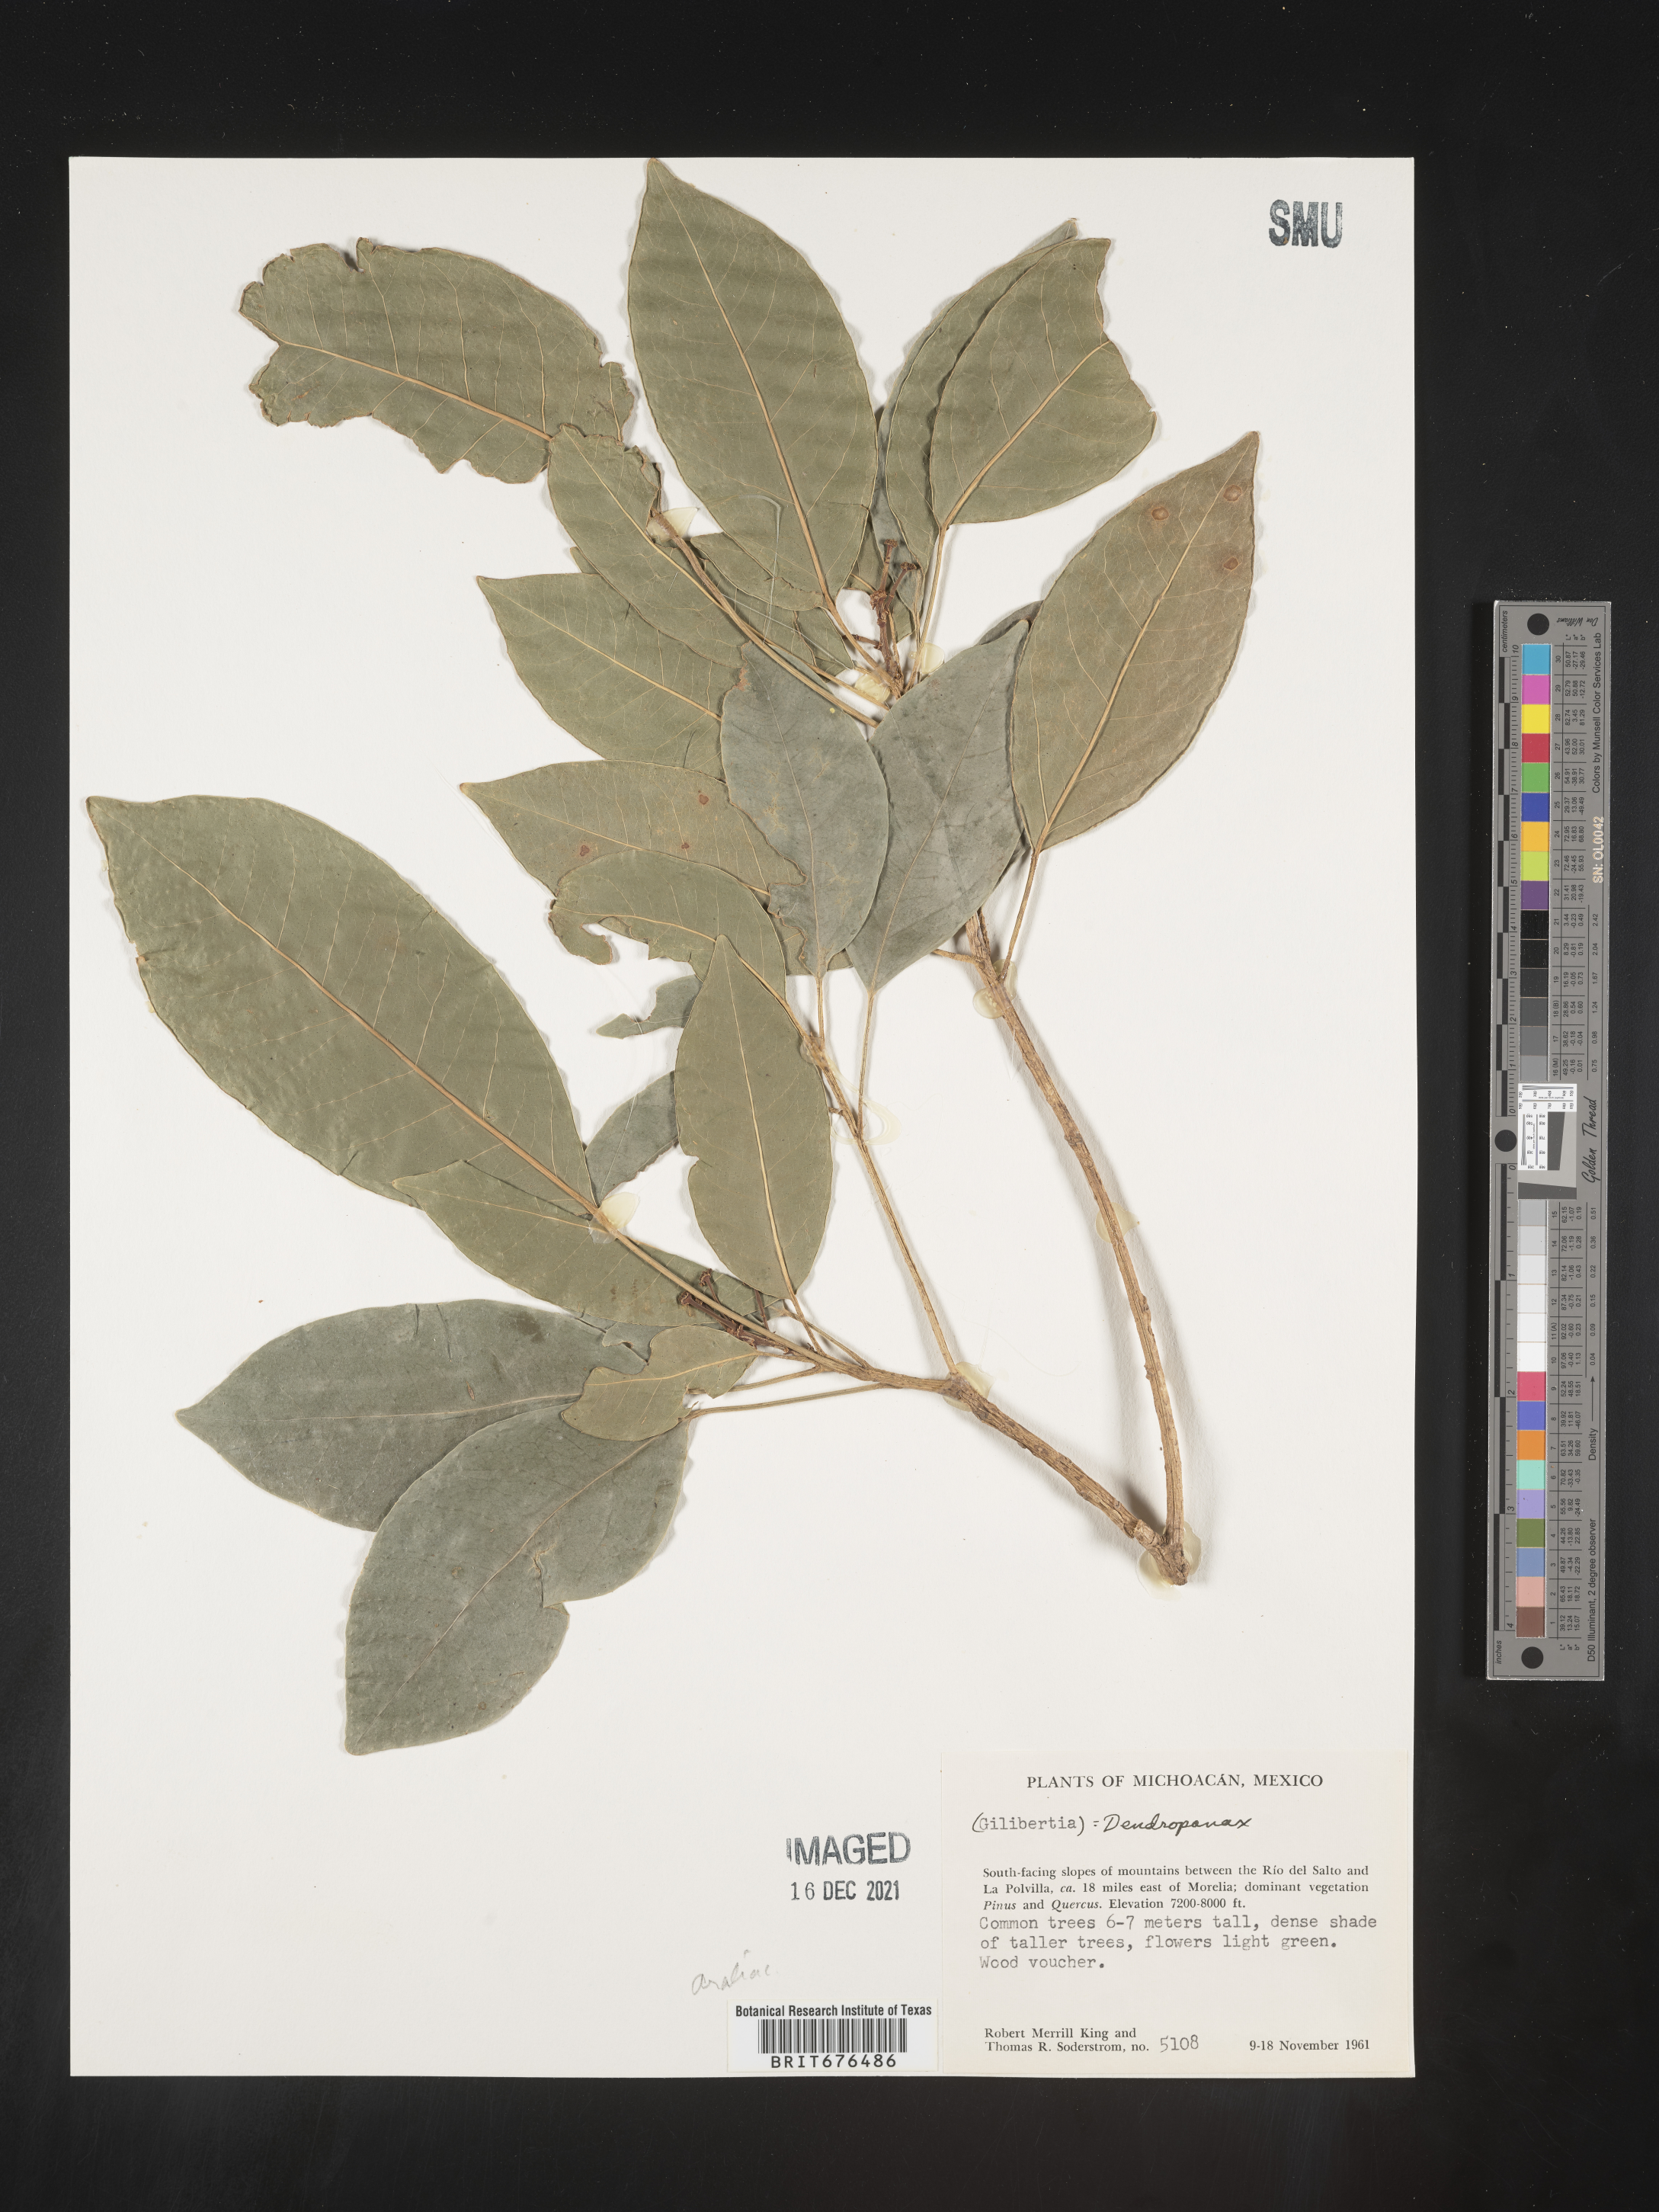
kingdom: Plantae
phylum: Tracheophyta
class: Magnoliopsida
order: Apiales
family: Araliaceae
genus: Dendropanax
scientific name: Dendropanax
